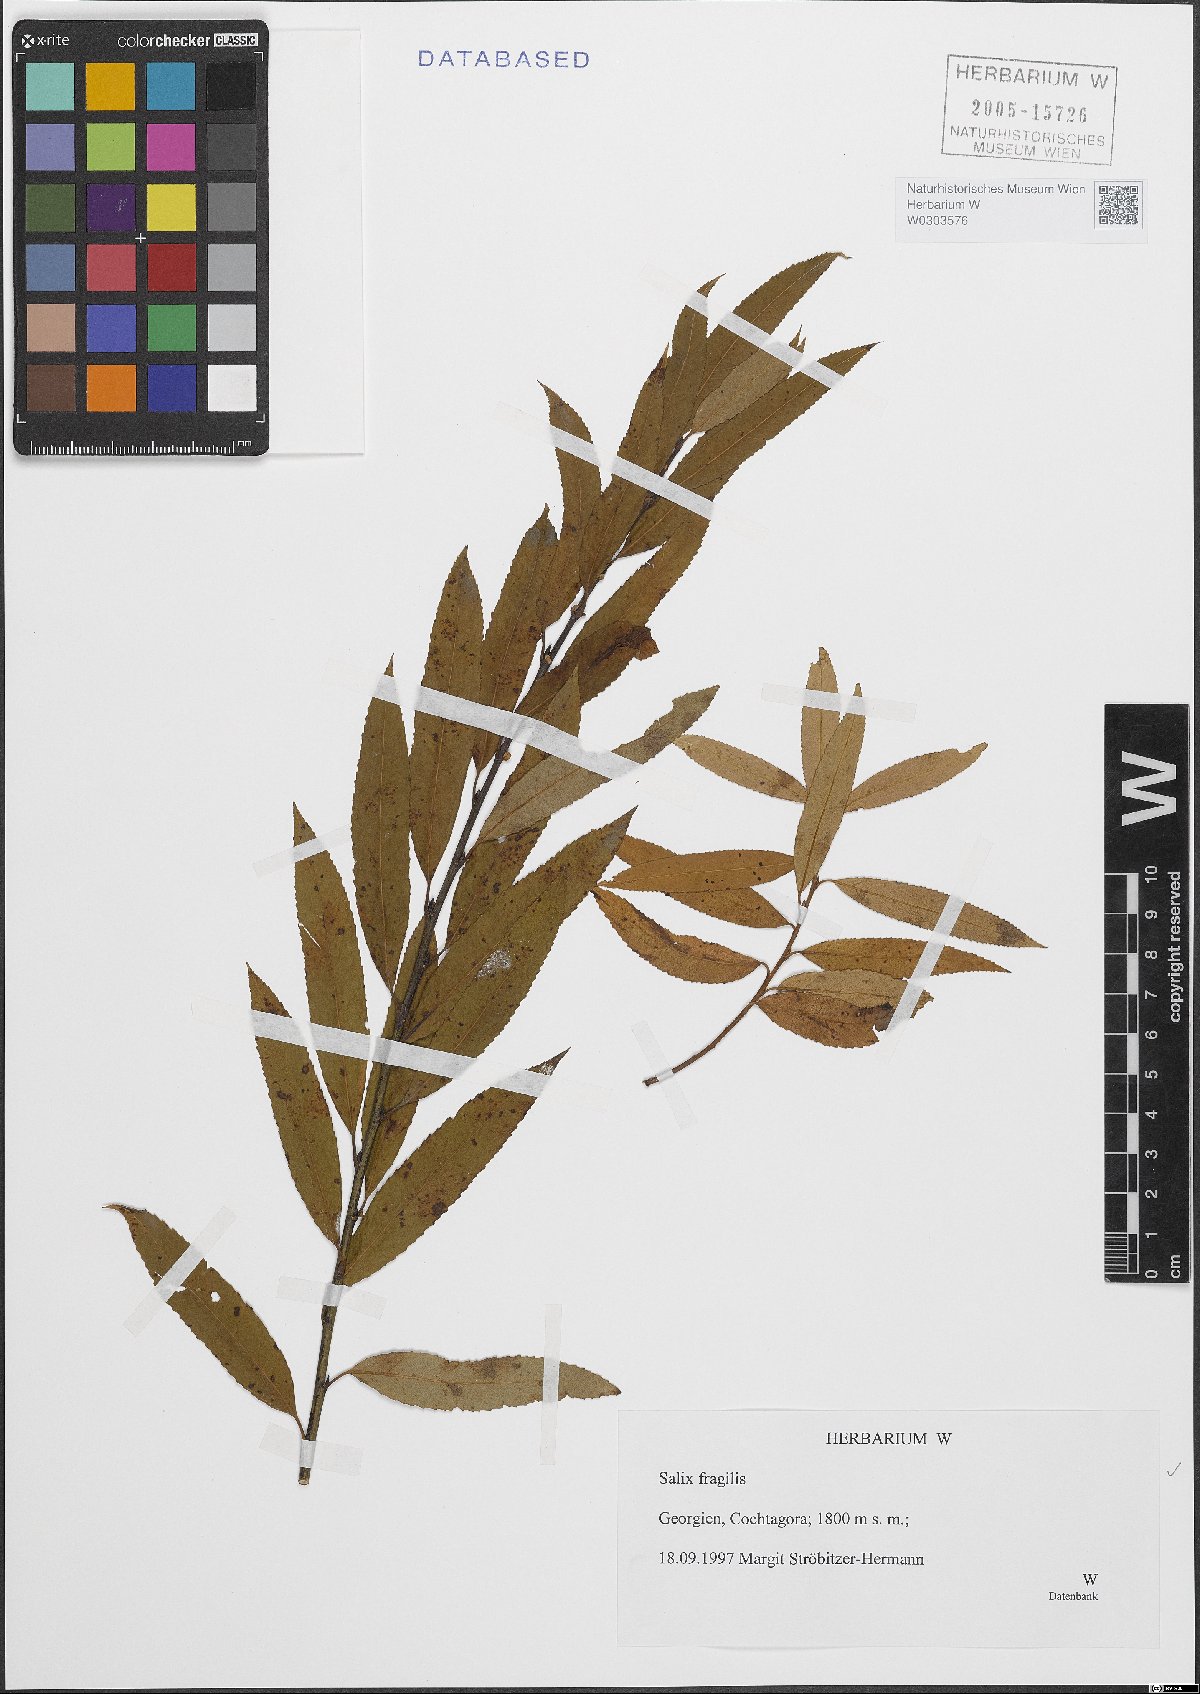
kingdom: Plantae
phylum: Tracheophyta
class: Magnoliopsida
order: Malpighiales
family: Salicaceae
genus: Salix
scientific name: Salix fragilis
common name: Crack willow
